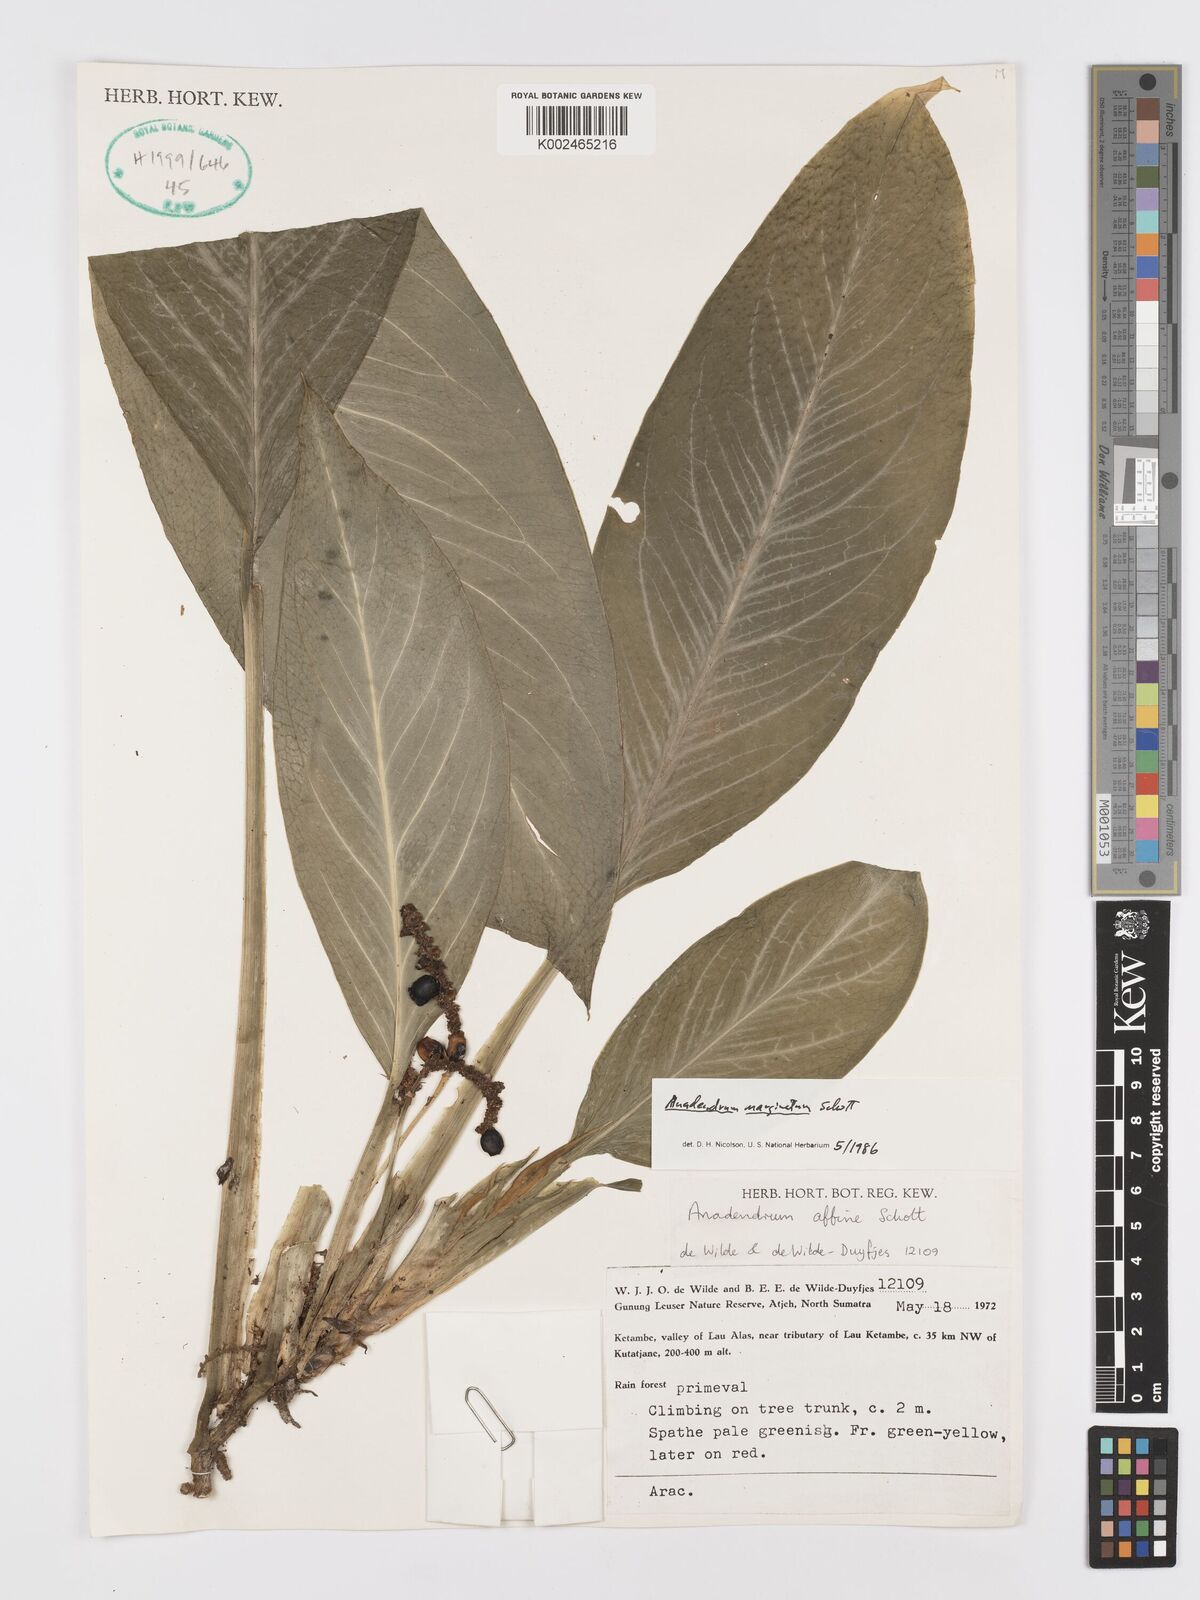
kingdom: Plantae
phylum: Tracheophyta
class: Liliopsida
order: Alismatales
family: Araceae
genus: Anadendrum
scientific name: Anadendrum marginatum
